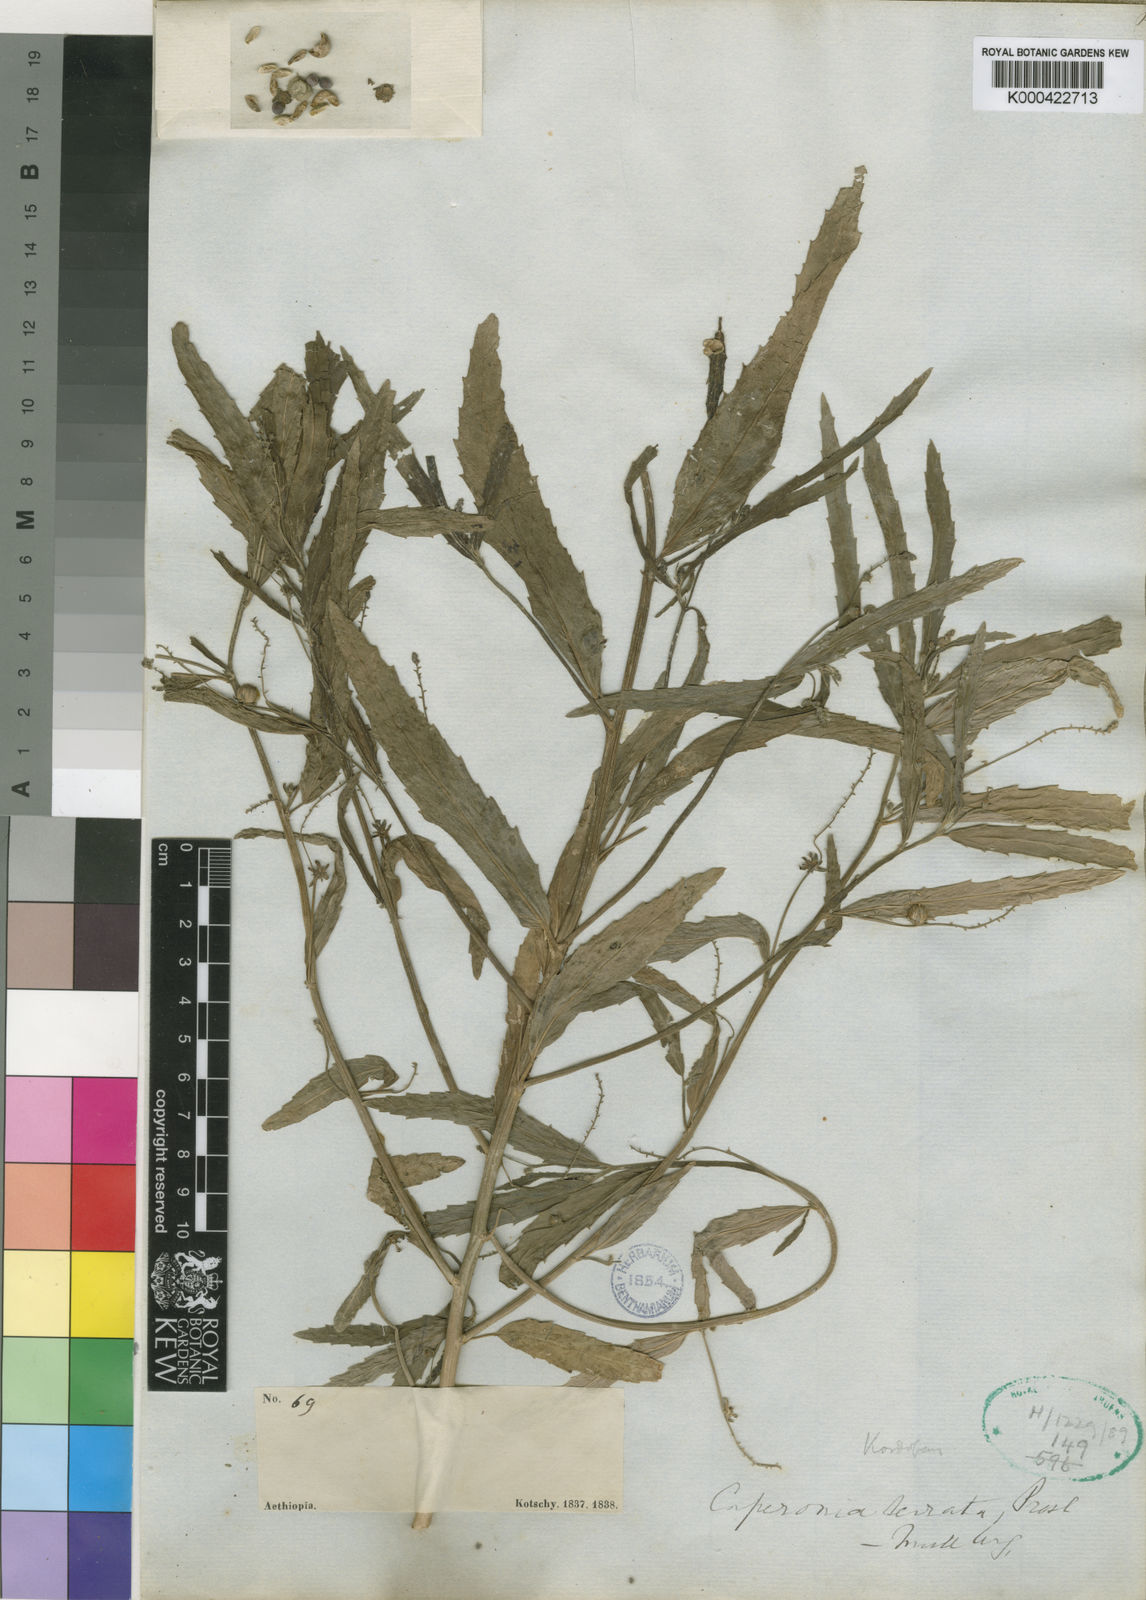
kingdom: Plantae
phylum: Tracheophyta
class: Magnoliopsida
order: Malpighiales
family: Euphorbiaceae
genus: Caperonia
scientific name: Caperonia serrata
